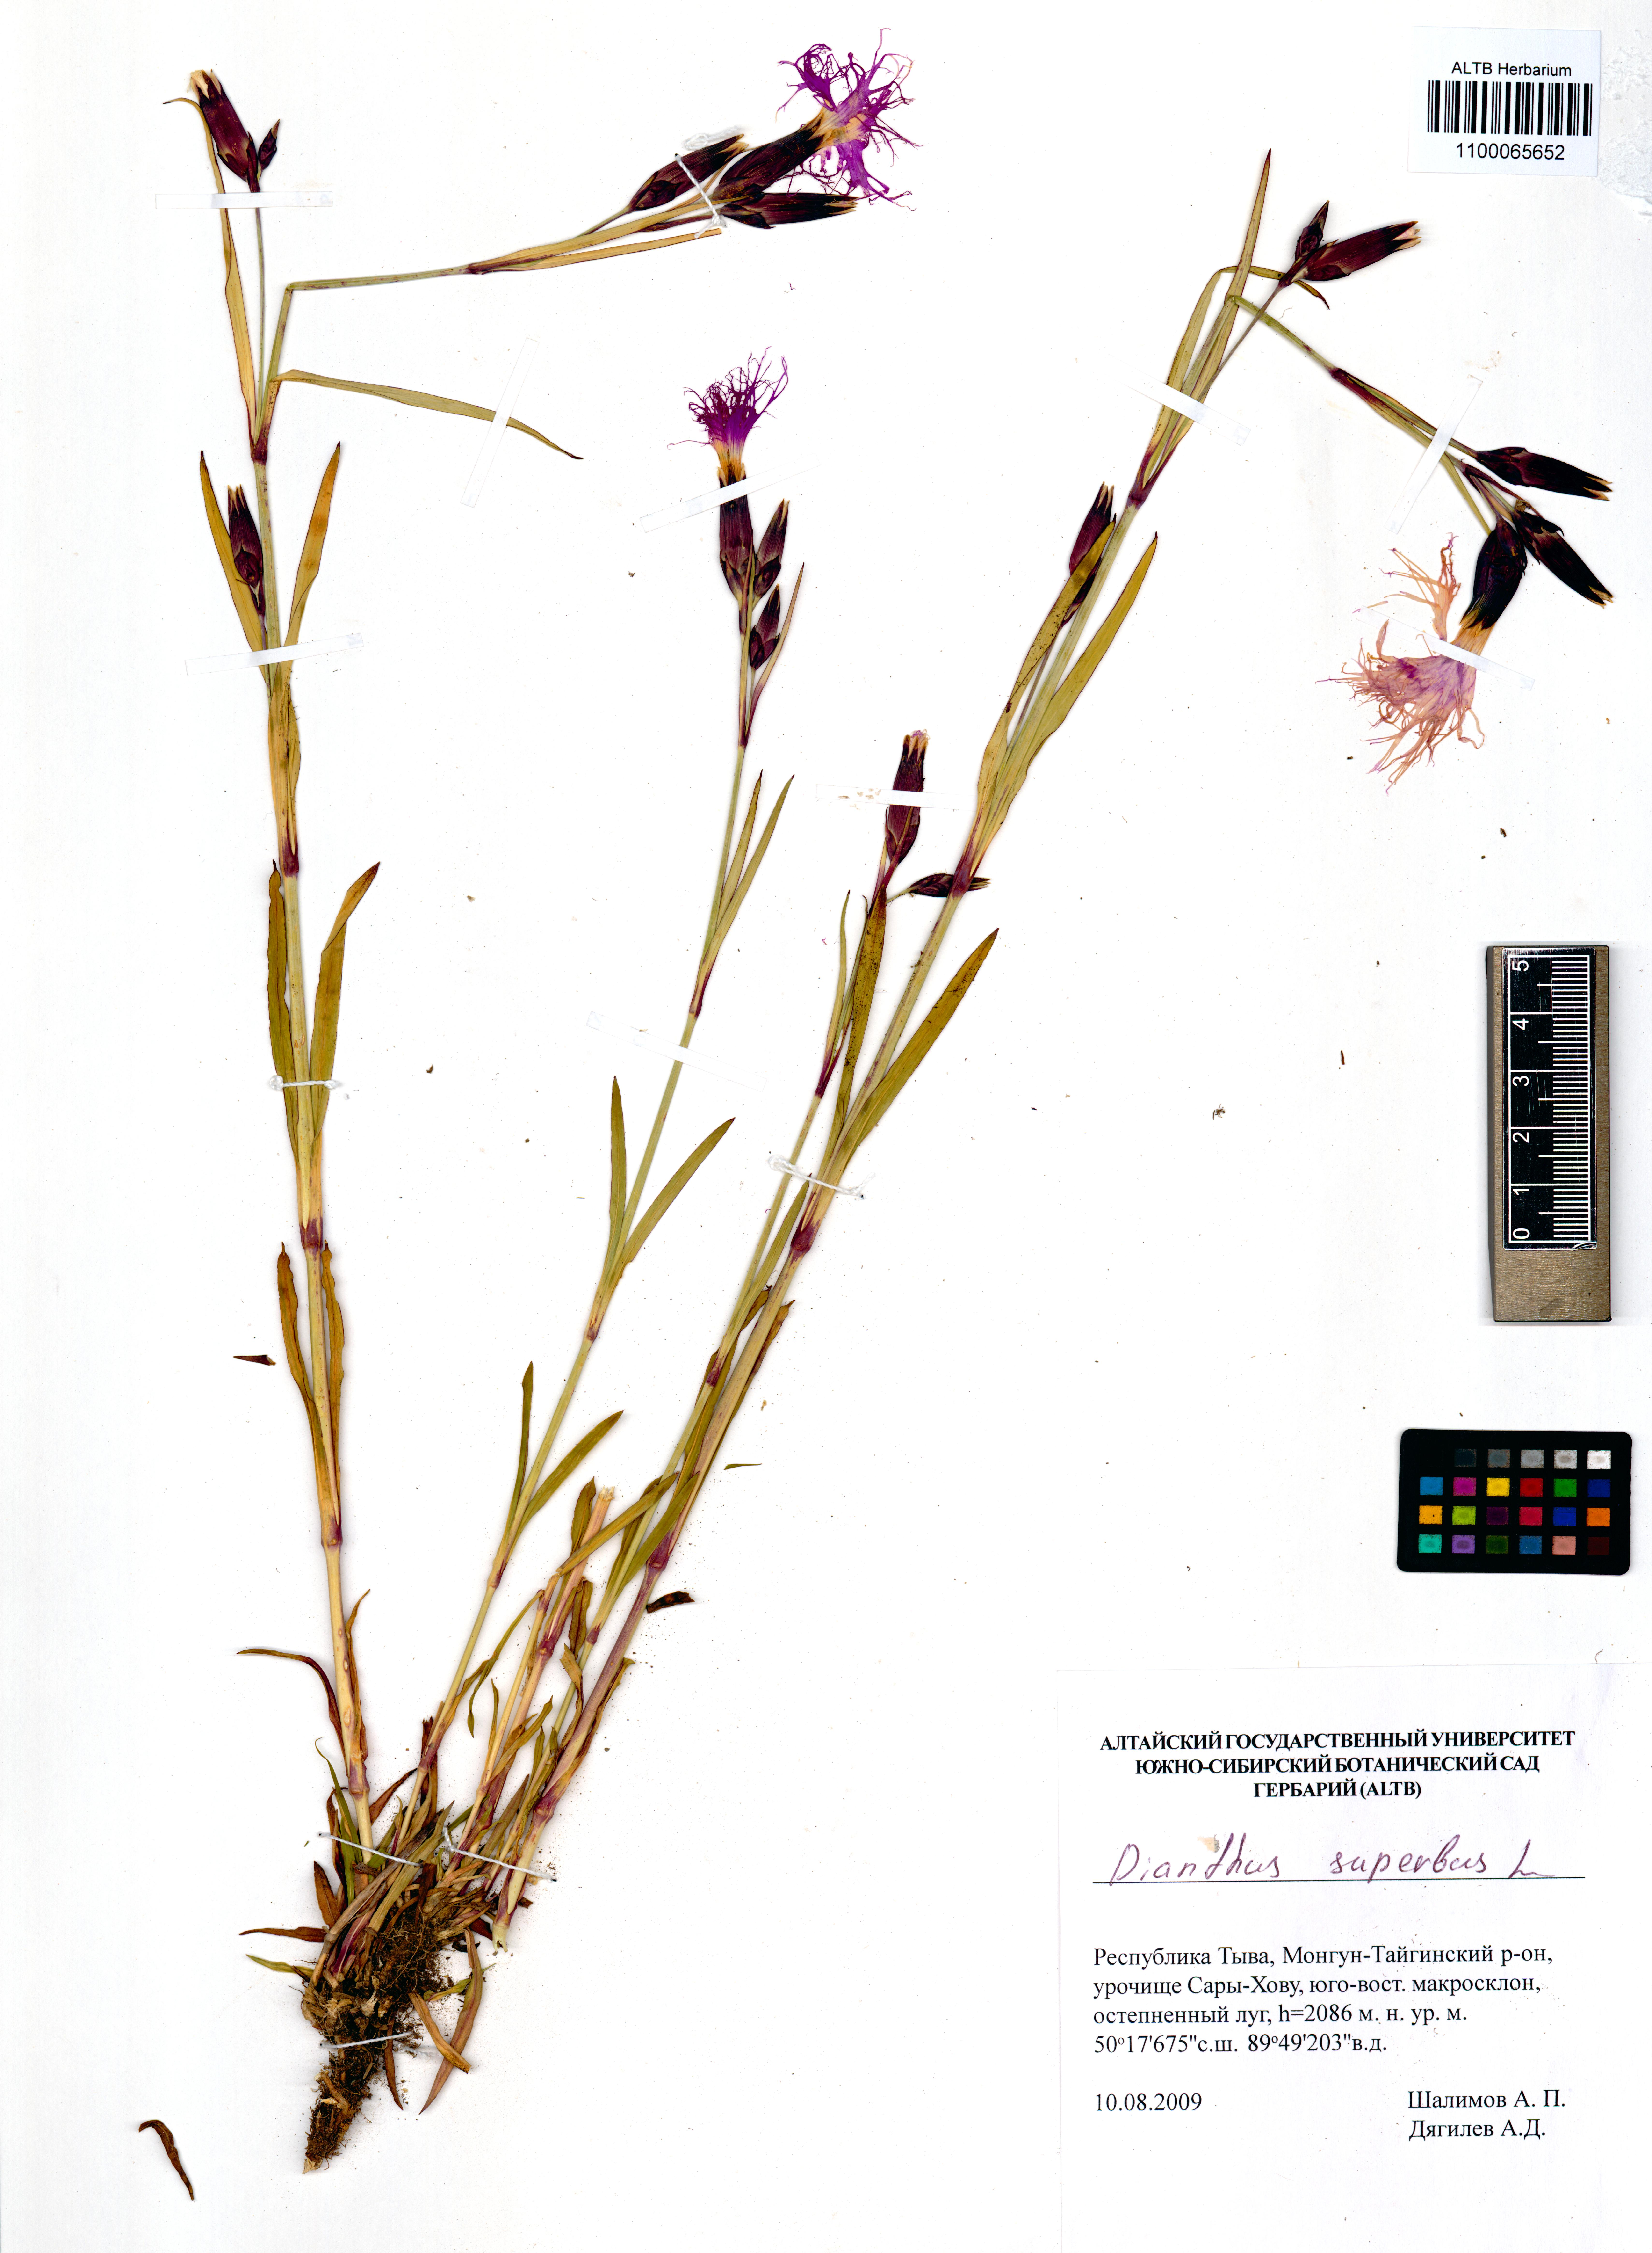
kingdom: Plantae
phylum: Tracheophyta
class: Magnoliopsida
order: Caryophyllales
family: Caryophyllaceae
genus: Dianthus
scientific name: Dianthus superbus
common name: Fringed pink
